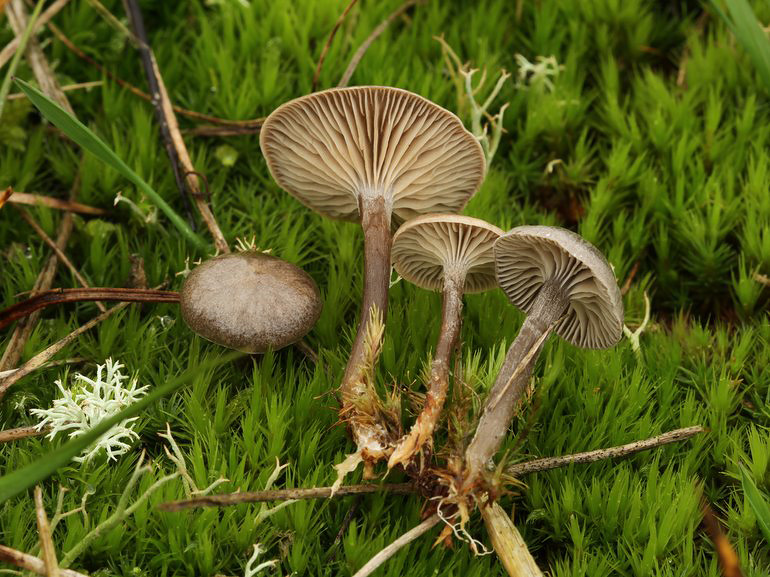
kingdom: Fungi
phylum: Basidiomycota
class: Agaricomycetes
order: Agaricales
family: Entolomataceae
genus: Clitopilus
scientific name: Clitopilus caelatus
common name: gråbrun troldhat
